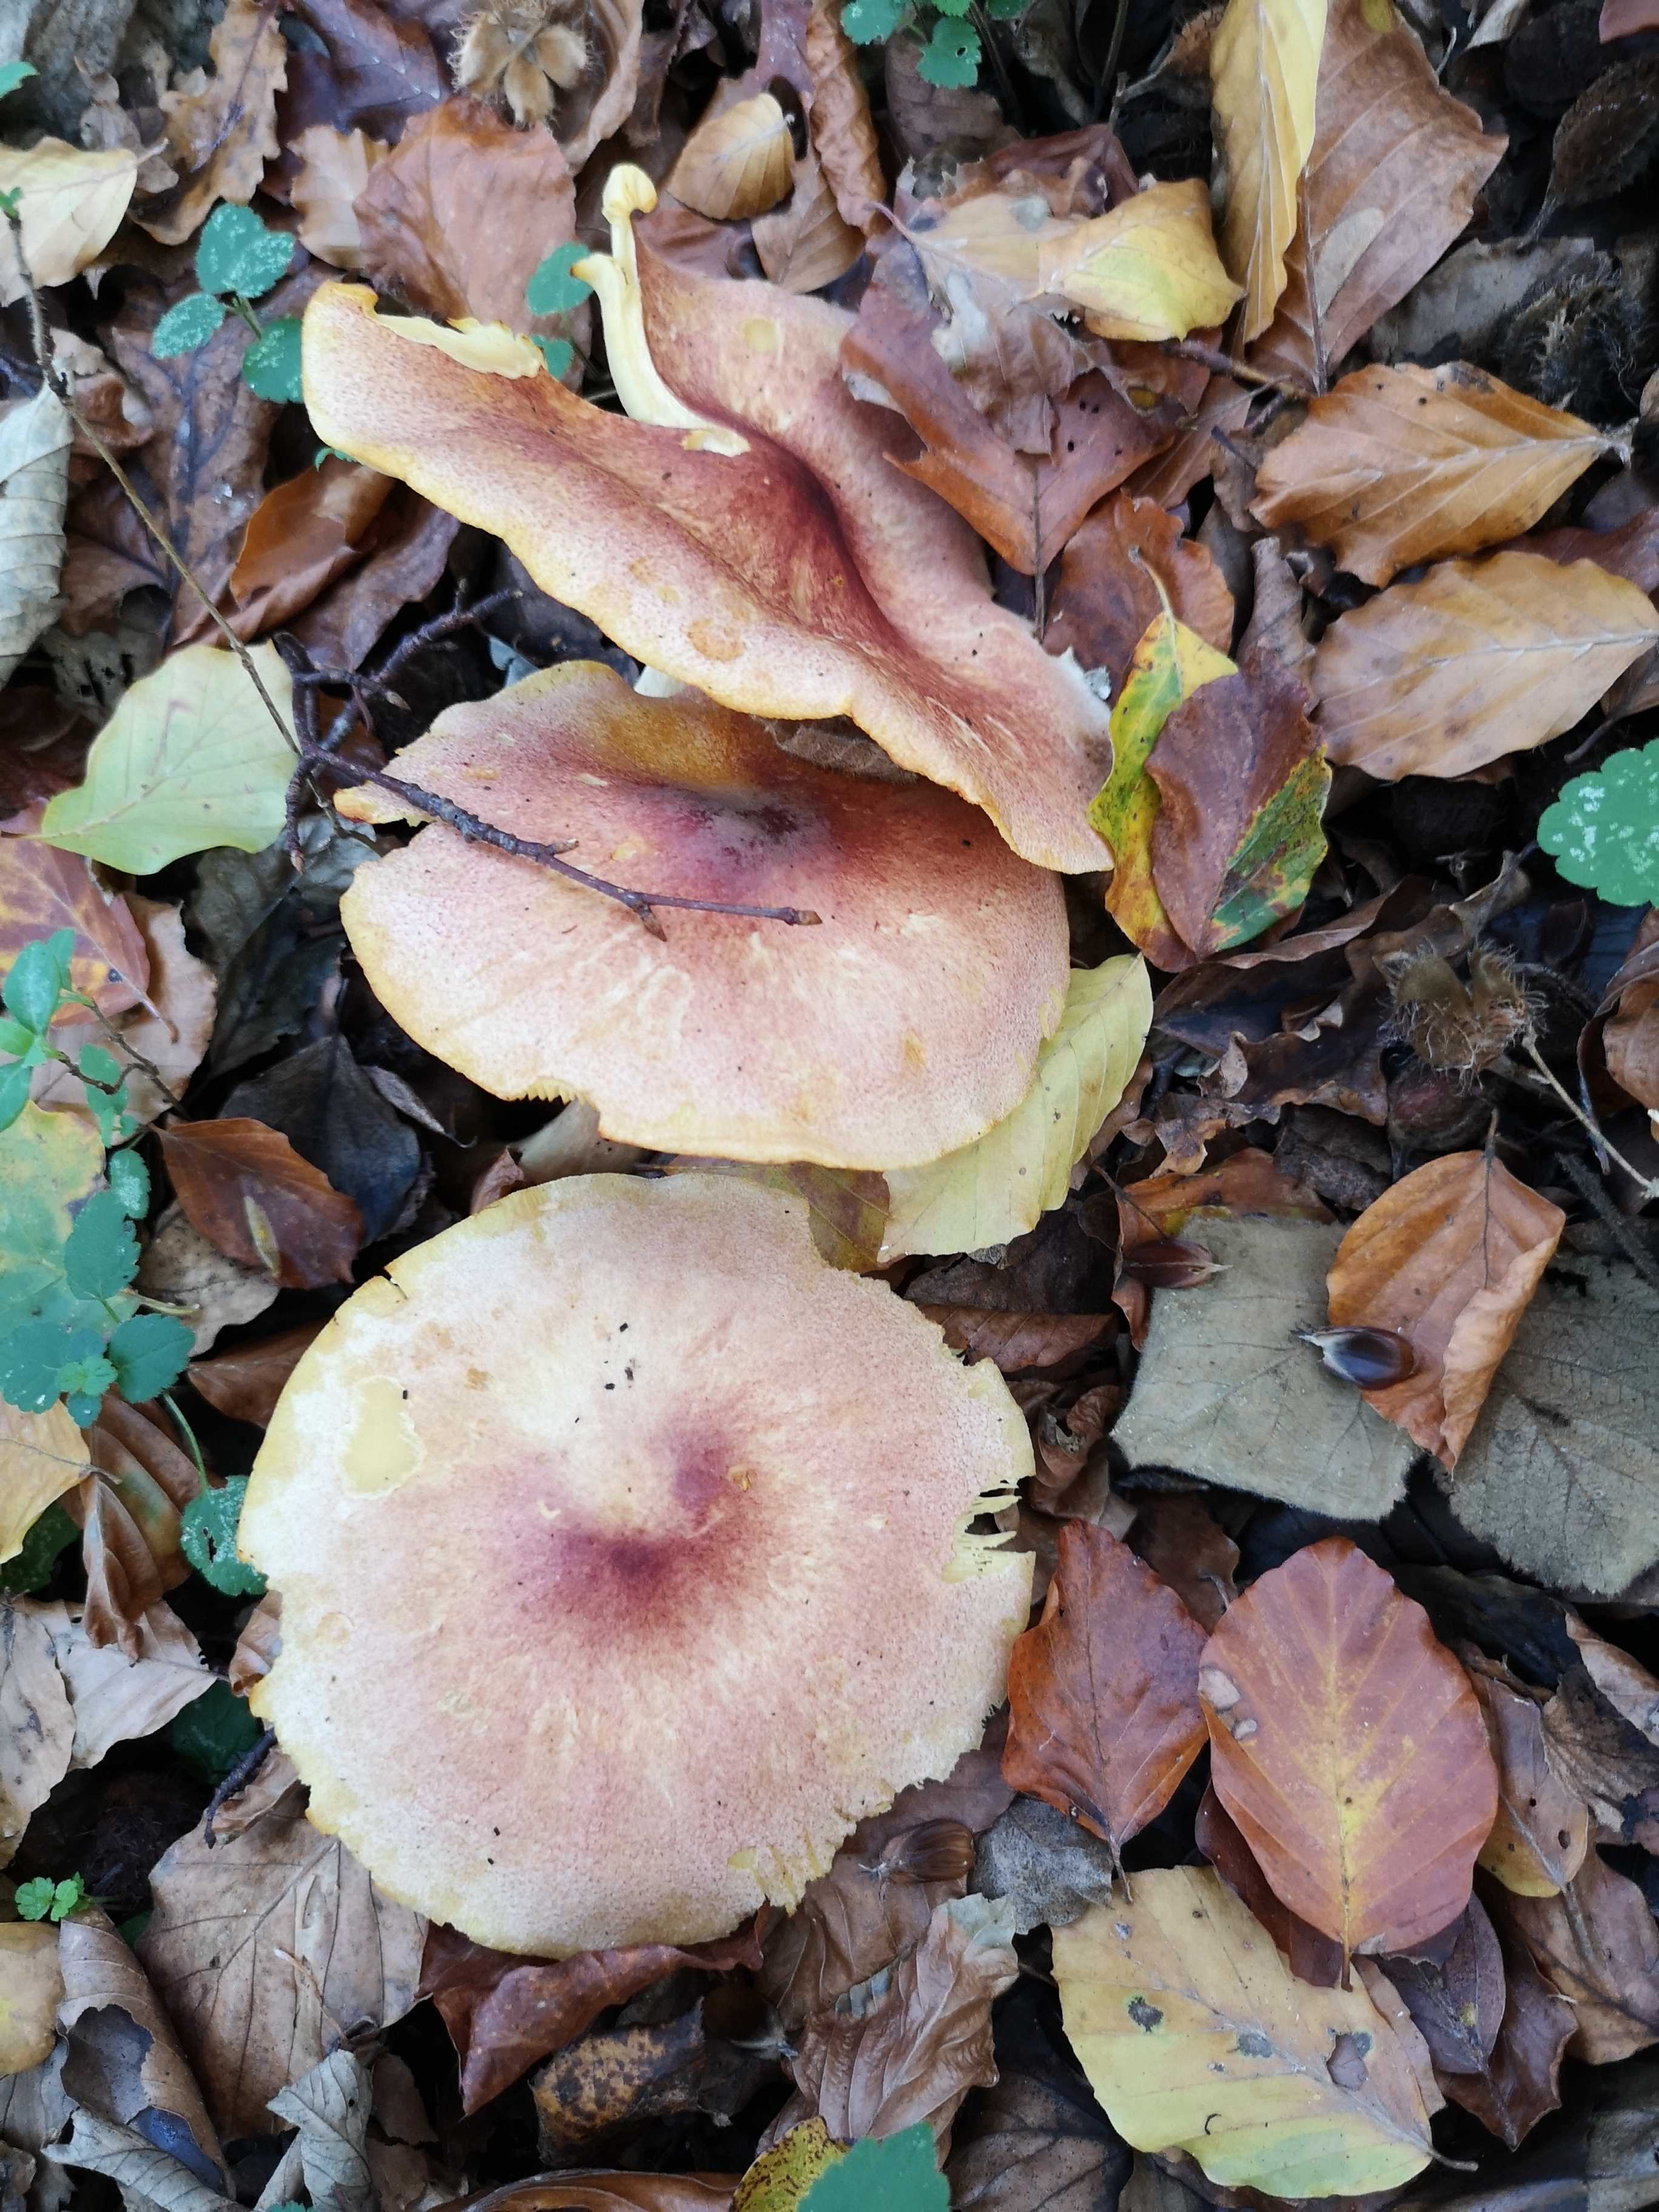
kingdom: Fungi
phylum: Basidiomycota
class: Agaricomycetes
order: Agaricales
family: Tricholomataceae
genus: Tricholomopsis
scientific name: Tricholomopsis rutilans
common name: purpur-væbnerhat
